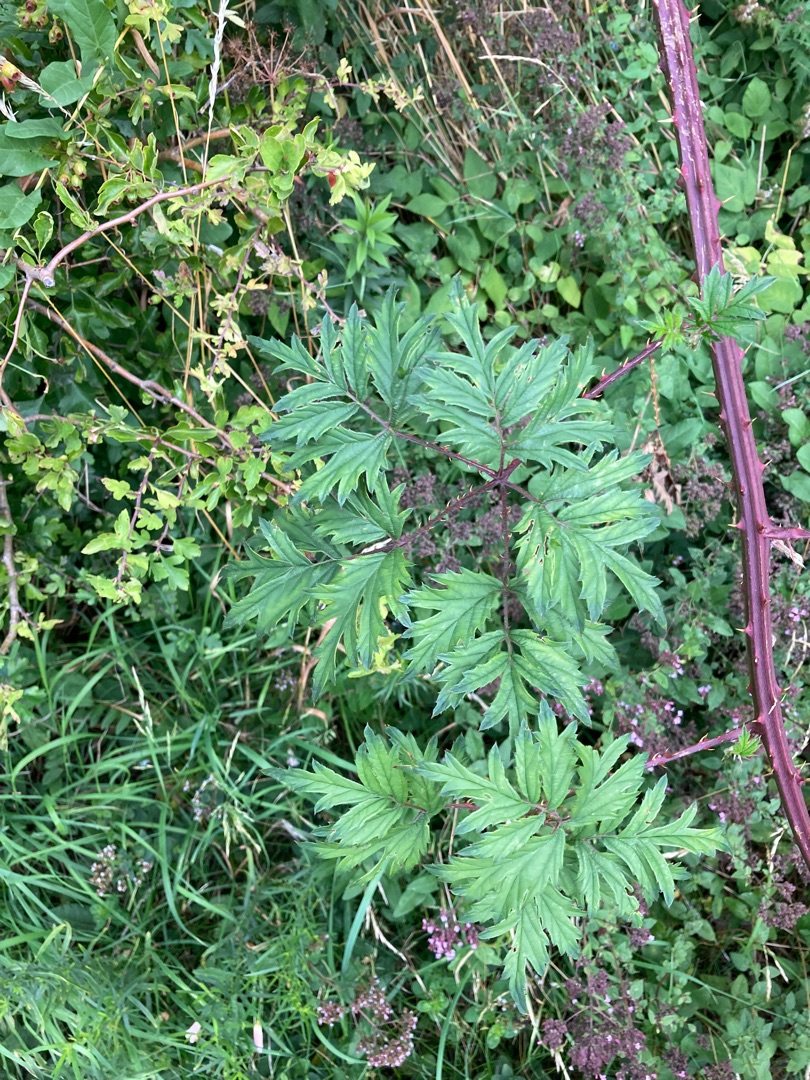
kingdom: Plantae
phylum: Tracheophyta
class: Magnoliopsida
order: Rosales
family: Rosaceae
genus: Rubus
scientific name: Rubus laciniatus
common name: Fliget brombær
